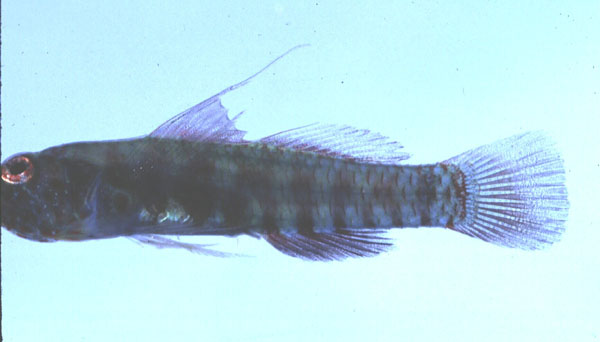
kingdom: Animalia
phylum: Chordata
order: Perciformes
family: Gobiidae
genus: Eviota
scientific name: Eviota afelei
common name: Afele's dwarfgoby
